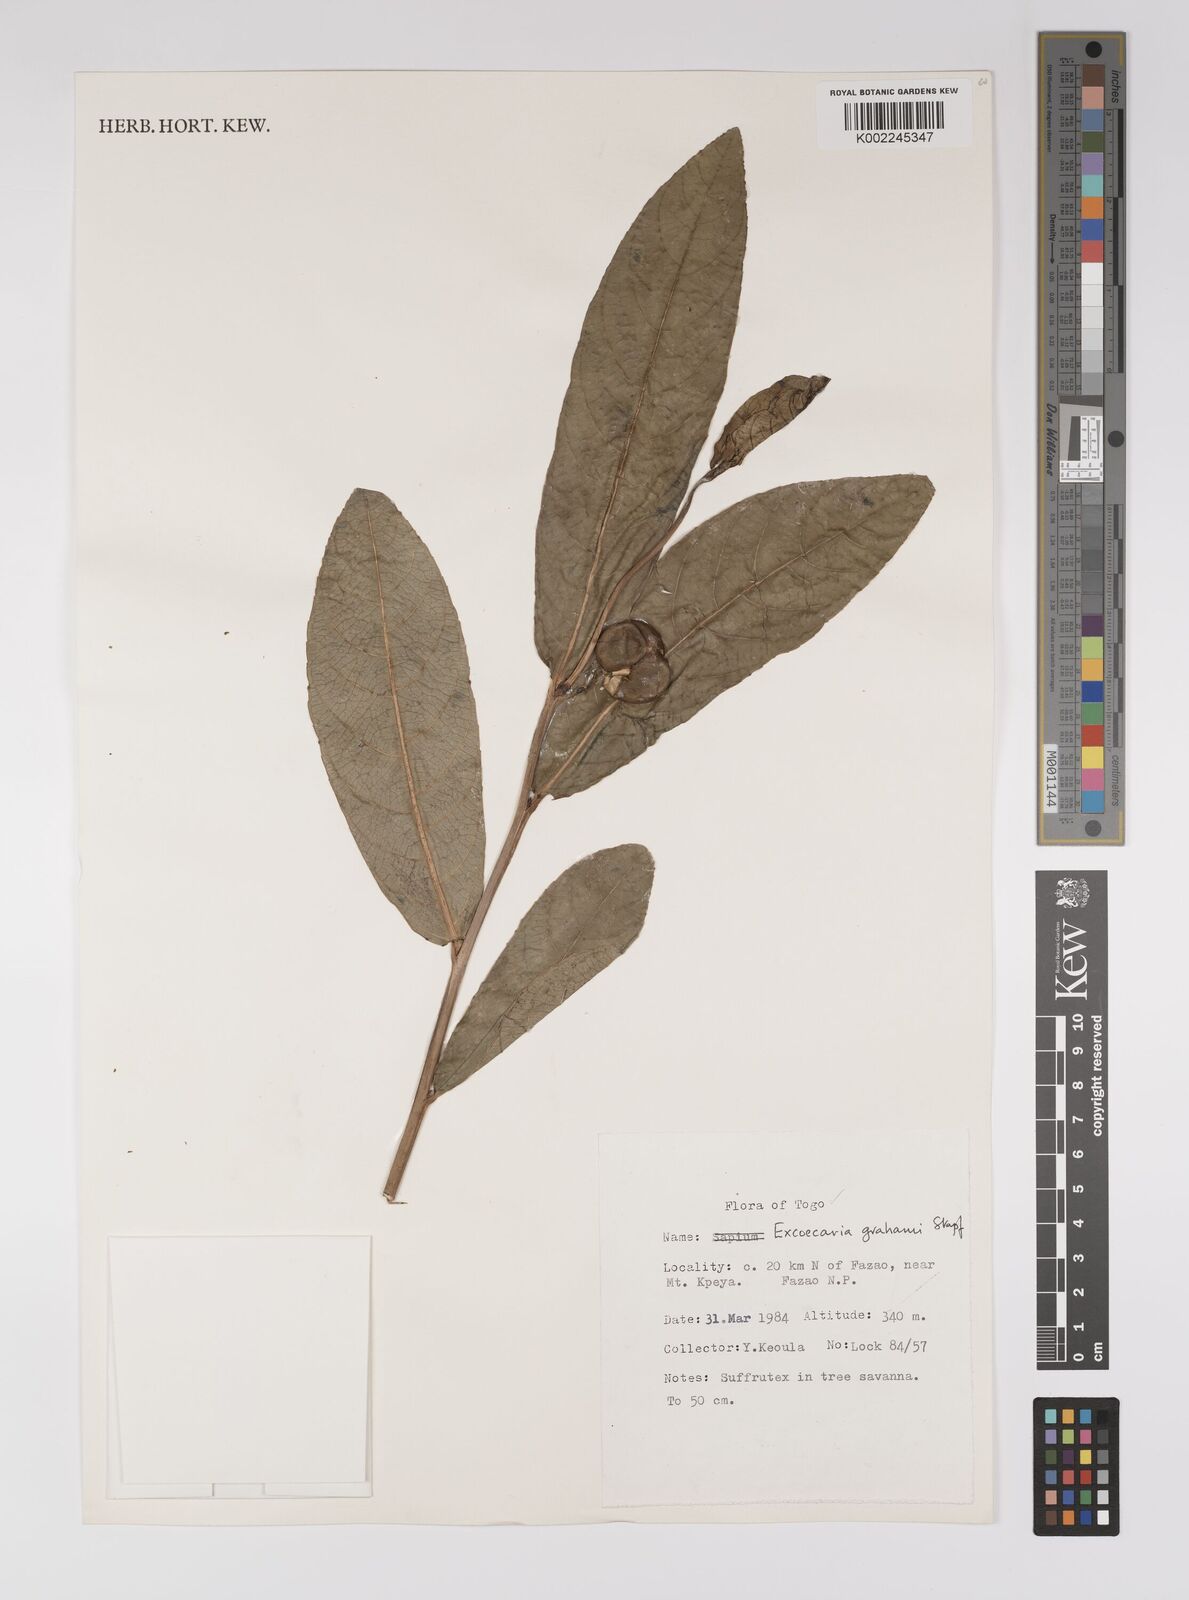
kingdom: Plantae
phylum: Tracheophyta
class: Magnoliopsida
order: Malpighiales
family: Euphorbiaceae
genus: Excoecaria
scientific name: Excoecaria grahamii
